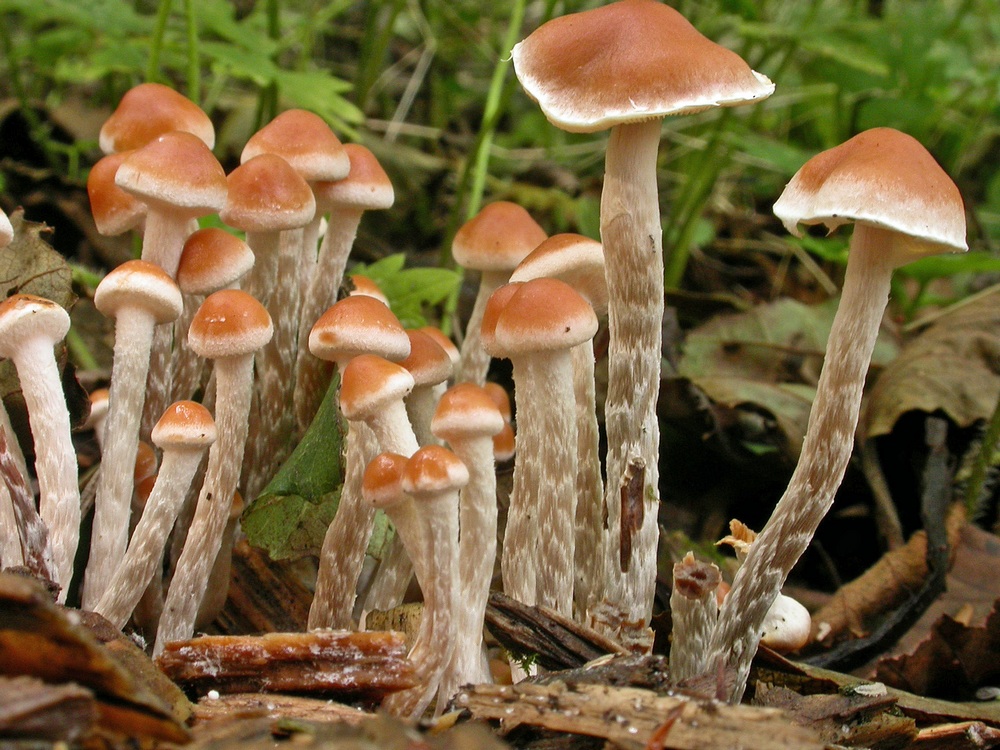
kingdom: Fungi
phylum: Basidiomycota
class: Agaricomycetes
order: Agaricales
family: Strophariaceae
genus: Hypholoma
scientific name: Hypholoma marginatum
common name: enlig svovlhat
